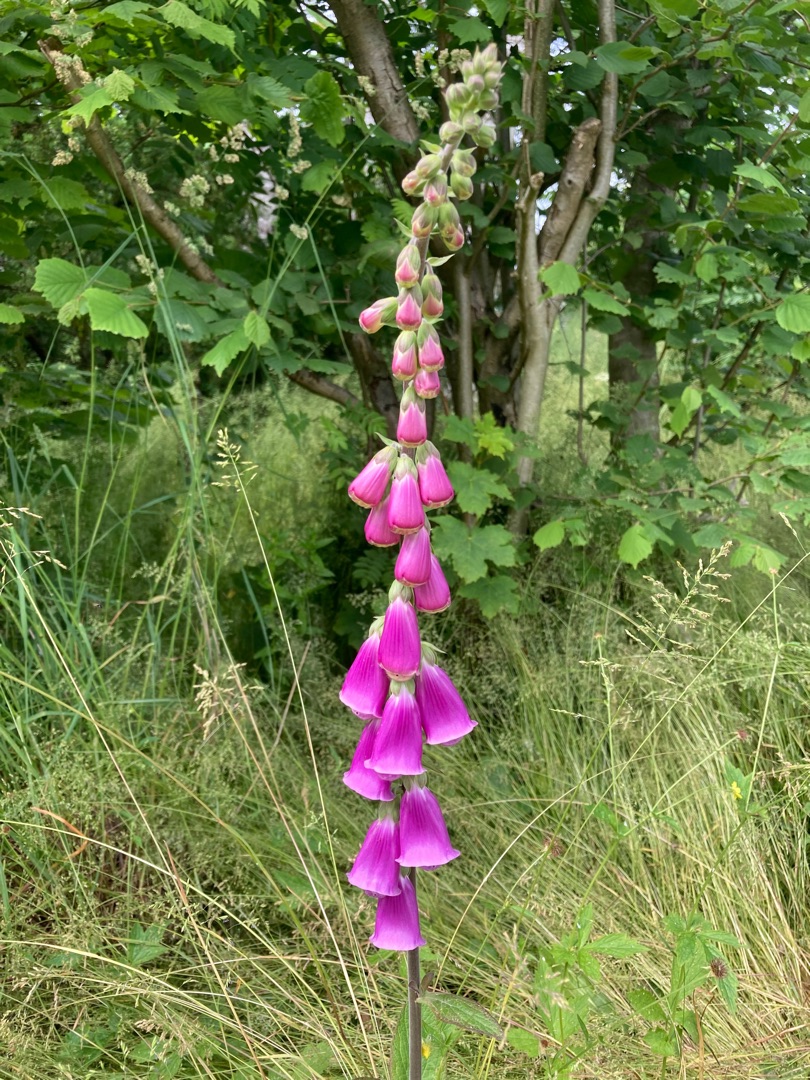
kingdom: Plantae
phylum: Tracheophyta
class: Magnoliopsida
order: Lamiales
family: Plantaginaceae
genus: Digitalis
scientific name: Digitalis purpurea
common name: Almindelig fingerbøl
